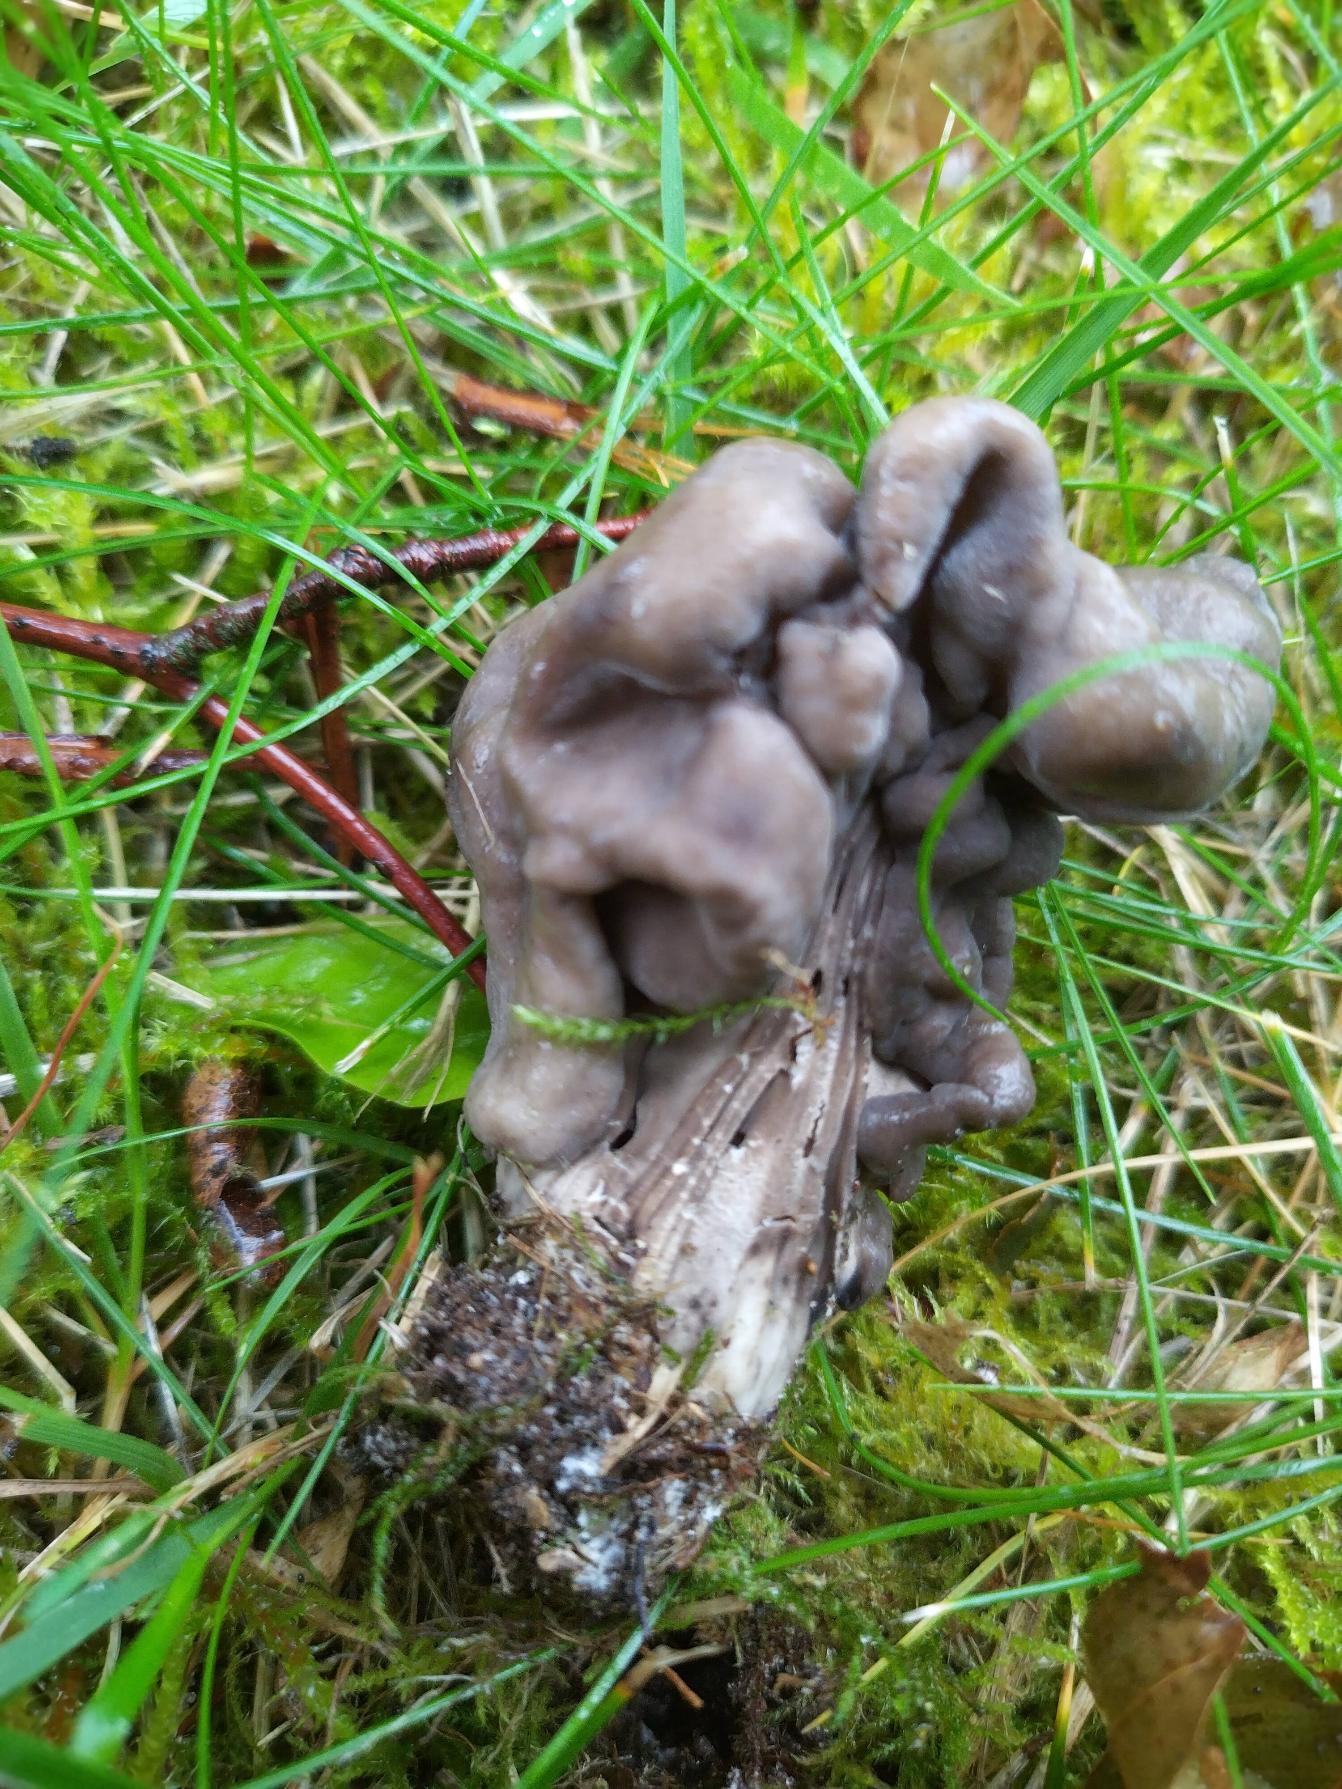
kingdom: Fungi
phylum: Ascomycota
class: Pezizomycetes
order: Pezizales
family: Helvellaceae
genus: Helvella
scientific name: Helvella lacunosa
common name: Grubet foldhat
